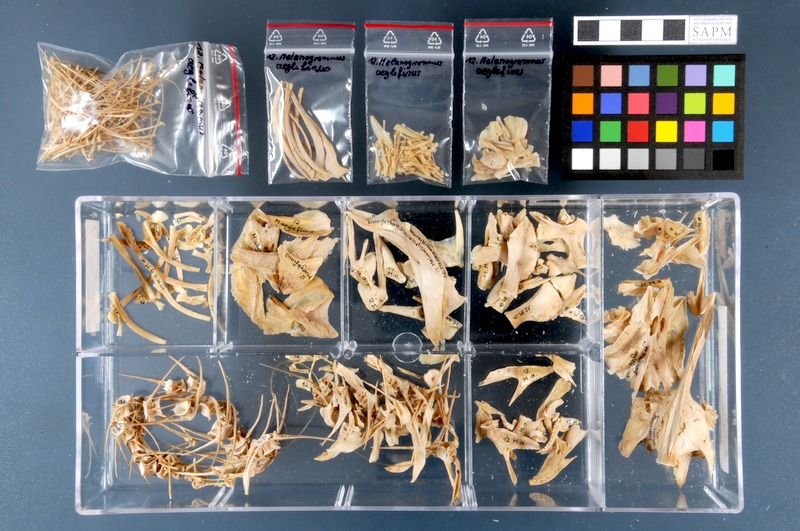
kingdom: Animalia
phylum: Chordata
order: Gadiformes
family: Gadidae
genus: Melanogrammus
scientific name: Melanogrammus aeglefinus
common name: Haddock
